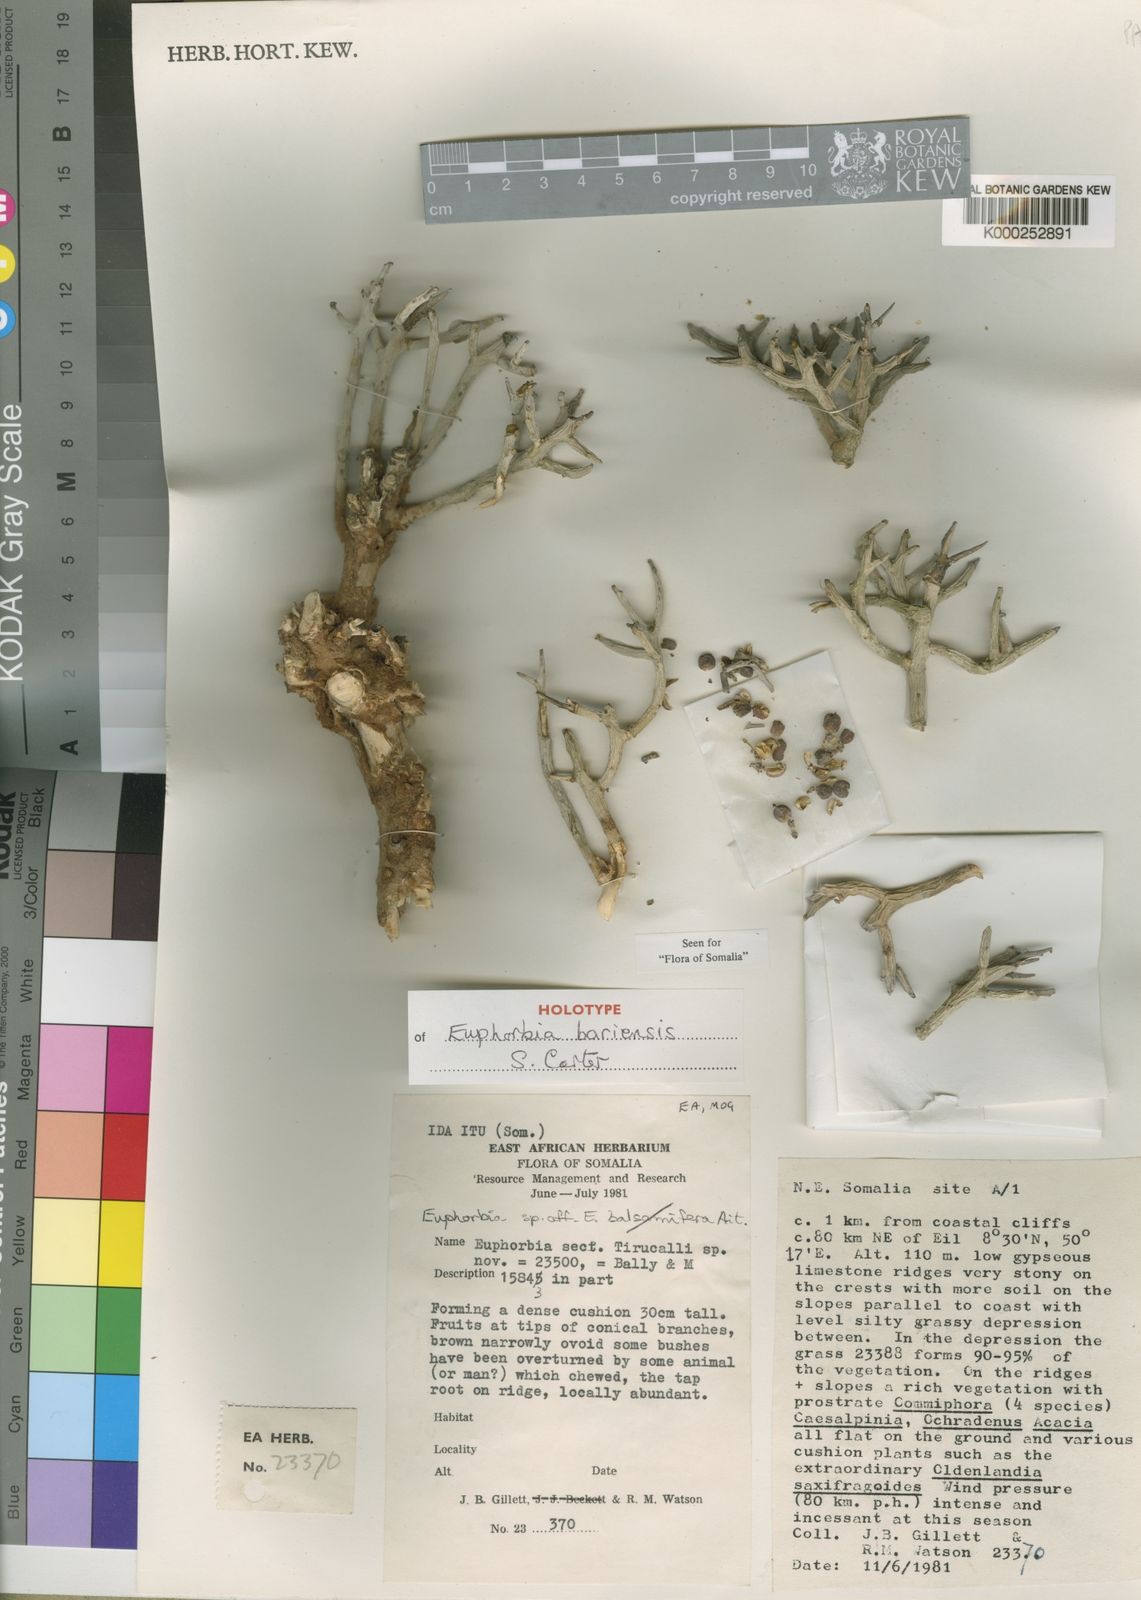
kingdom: Plantae
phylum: Tracheophyta
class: Magnoliopsida
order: Malpighiales
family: Euphorbiaceae
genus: Euphorbia
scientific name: Euphorbia bariensis
